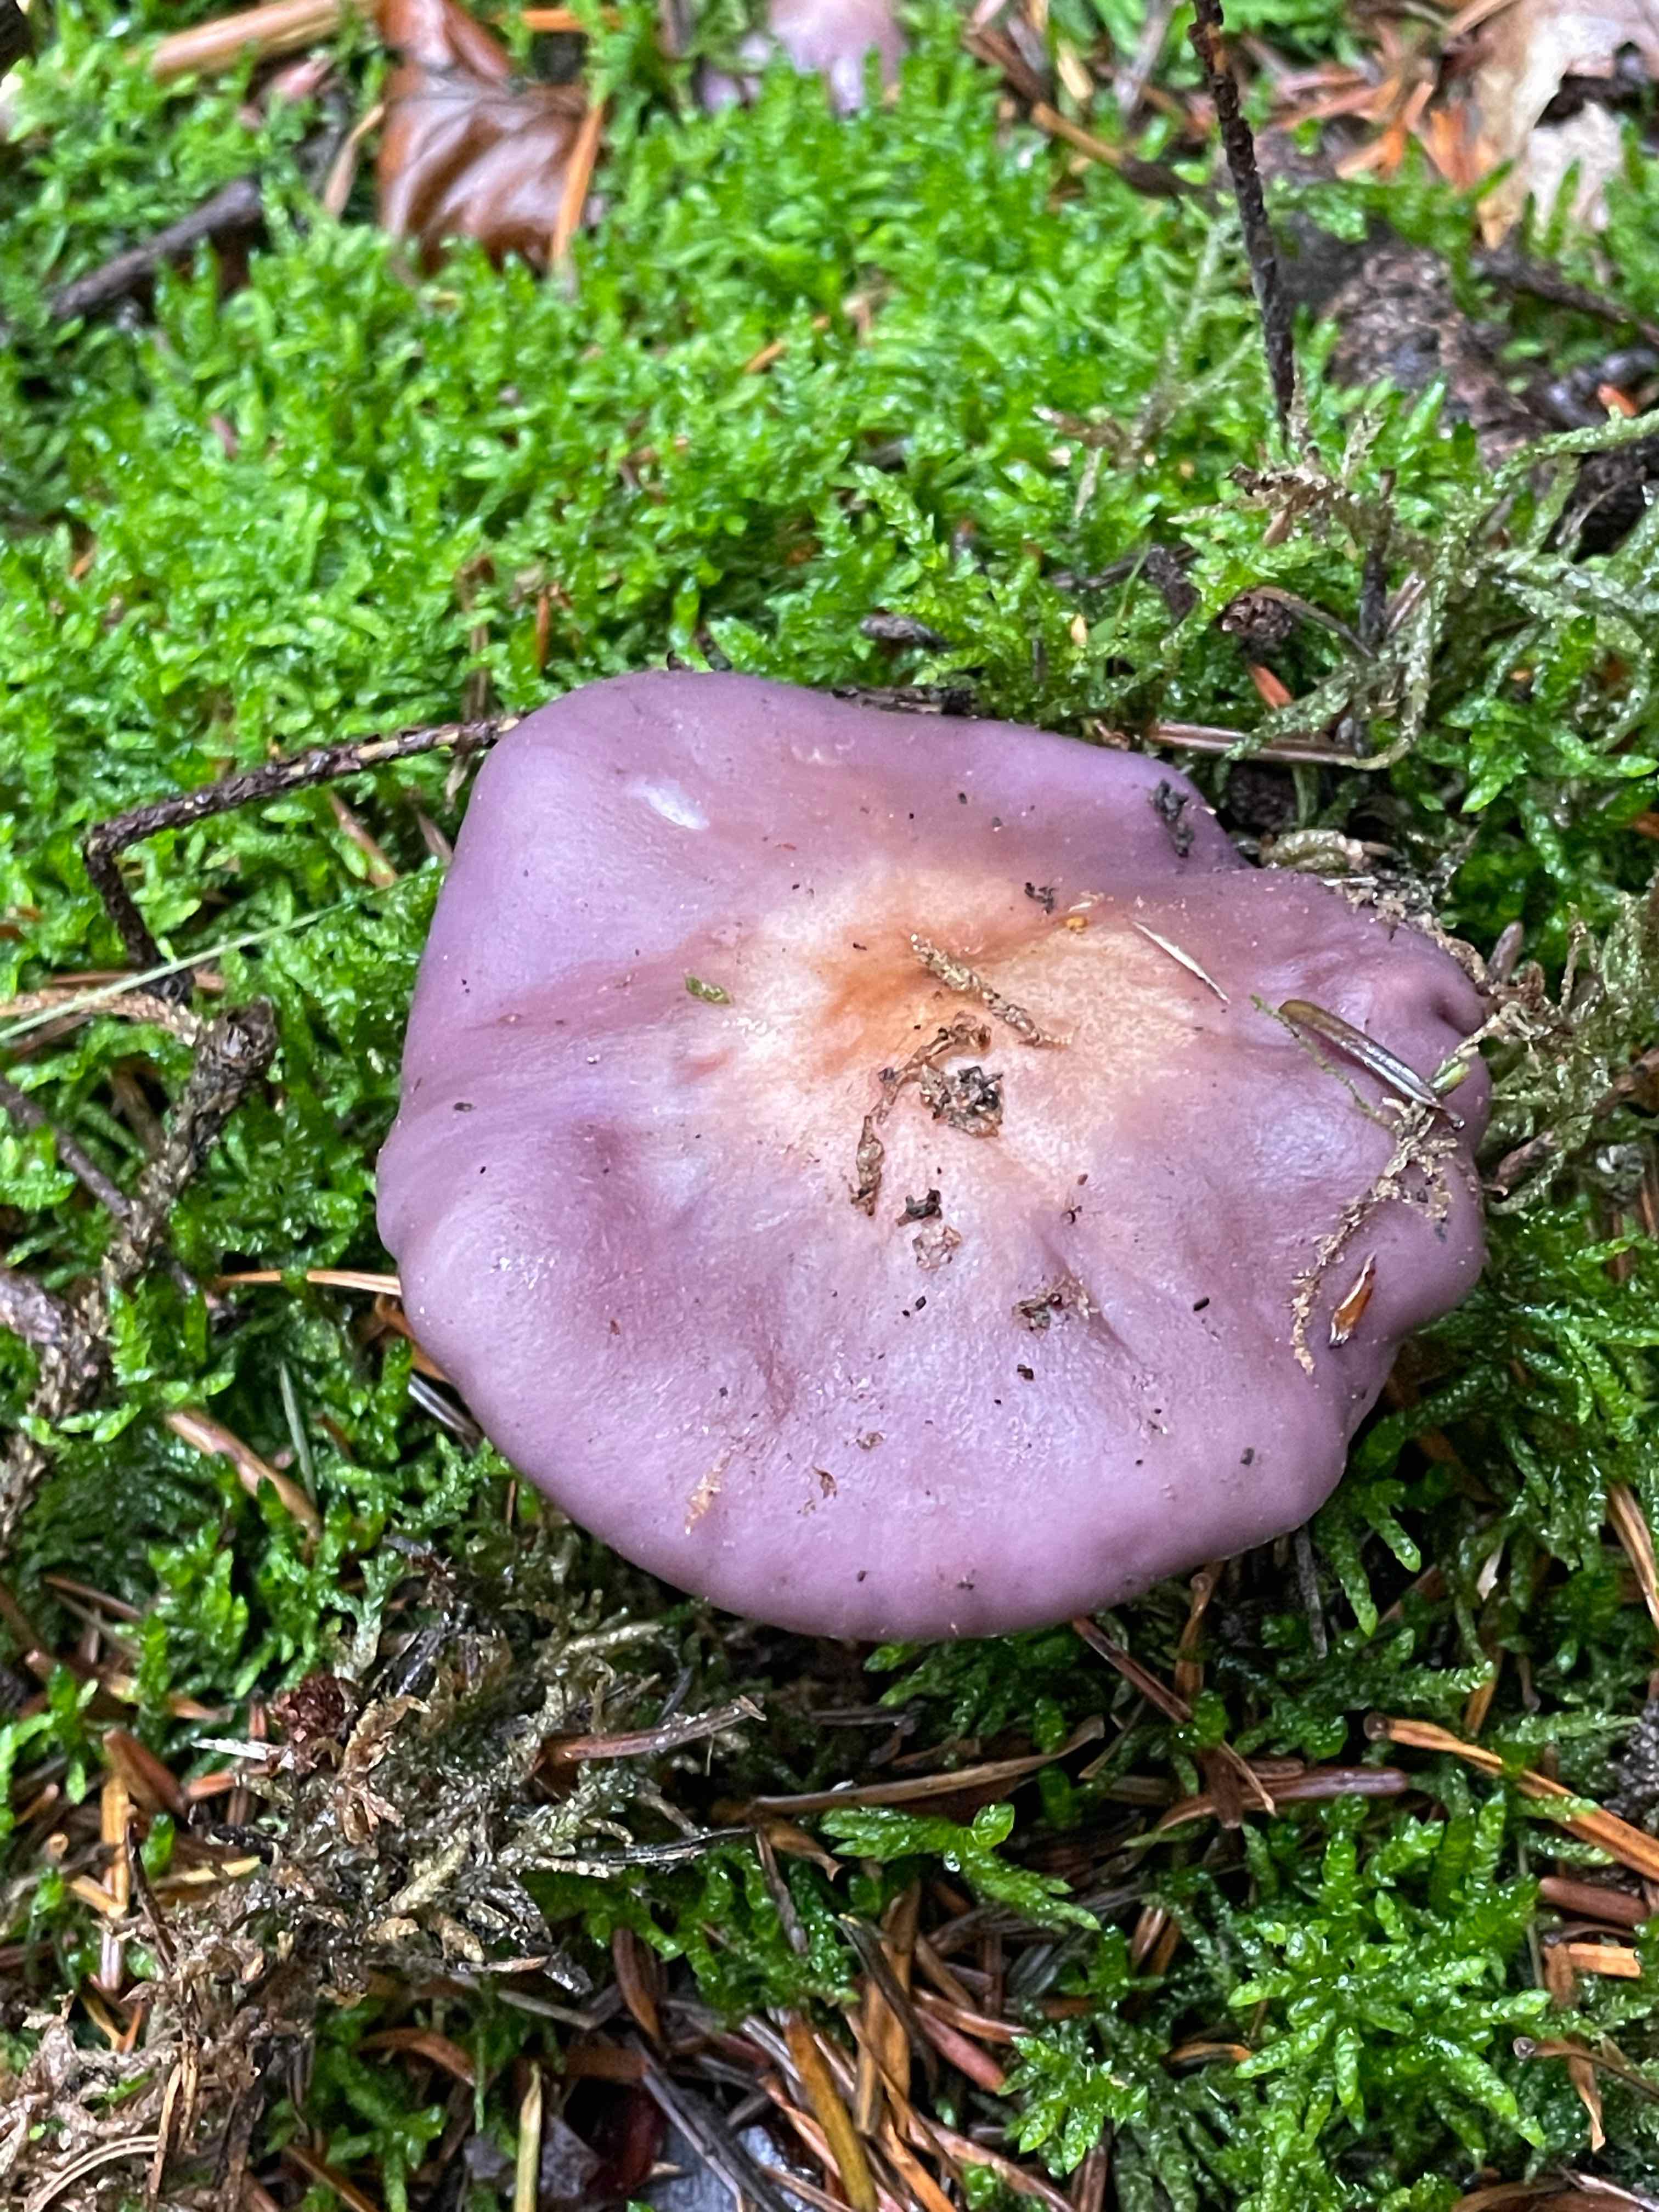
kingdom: Fungi
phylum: Basidiomycota
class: Agaricomycetes
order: Agaricales
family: Tricholomataceae
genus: Lepista
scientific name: Lepista nuda
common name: violet hekseringshat
